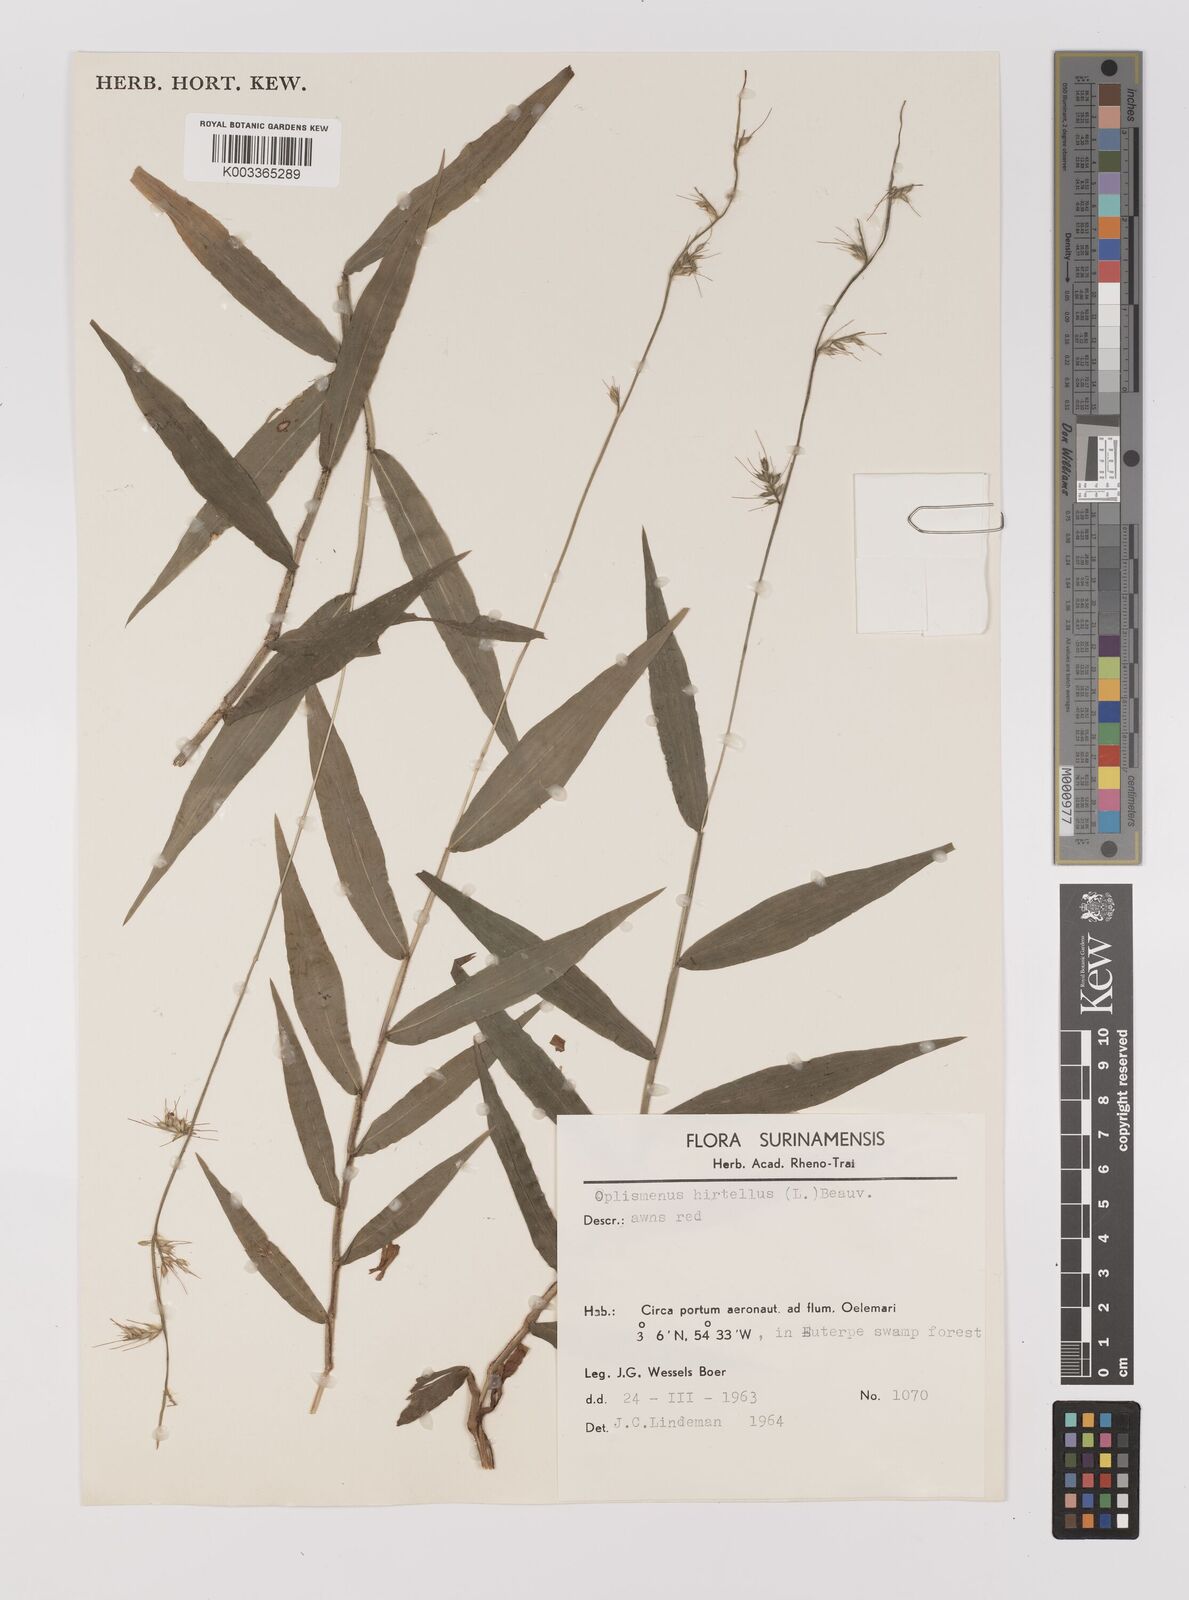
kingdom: Plantae
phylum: Tracheophyta
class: Liliopsida
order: Poales
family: Poaceae
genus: Oplismenus
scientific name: Oplismenus hirtellus
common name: Basketgrass
